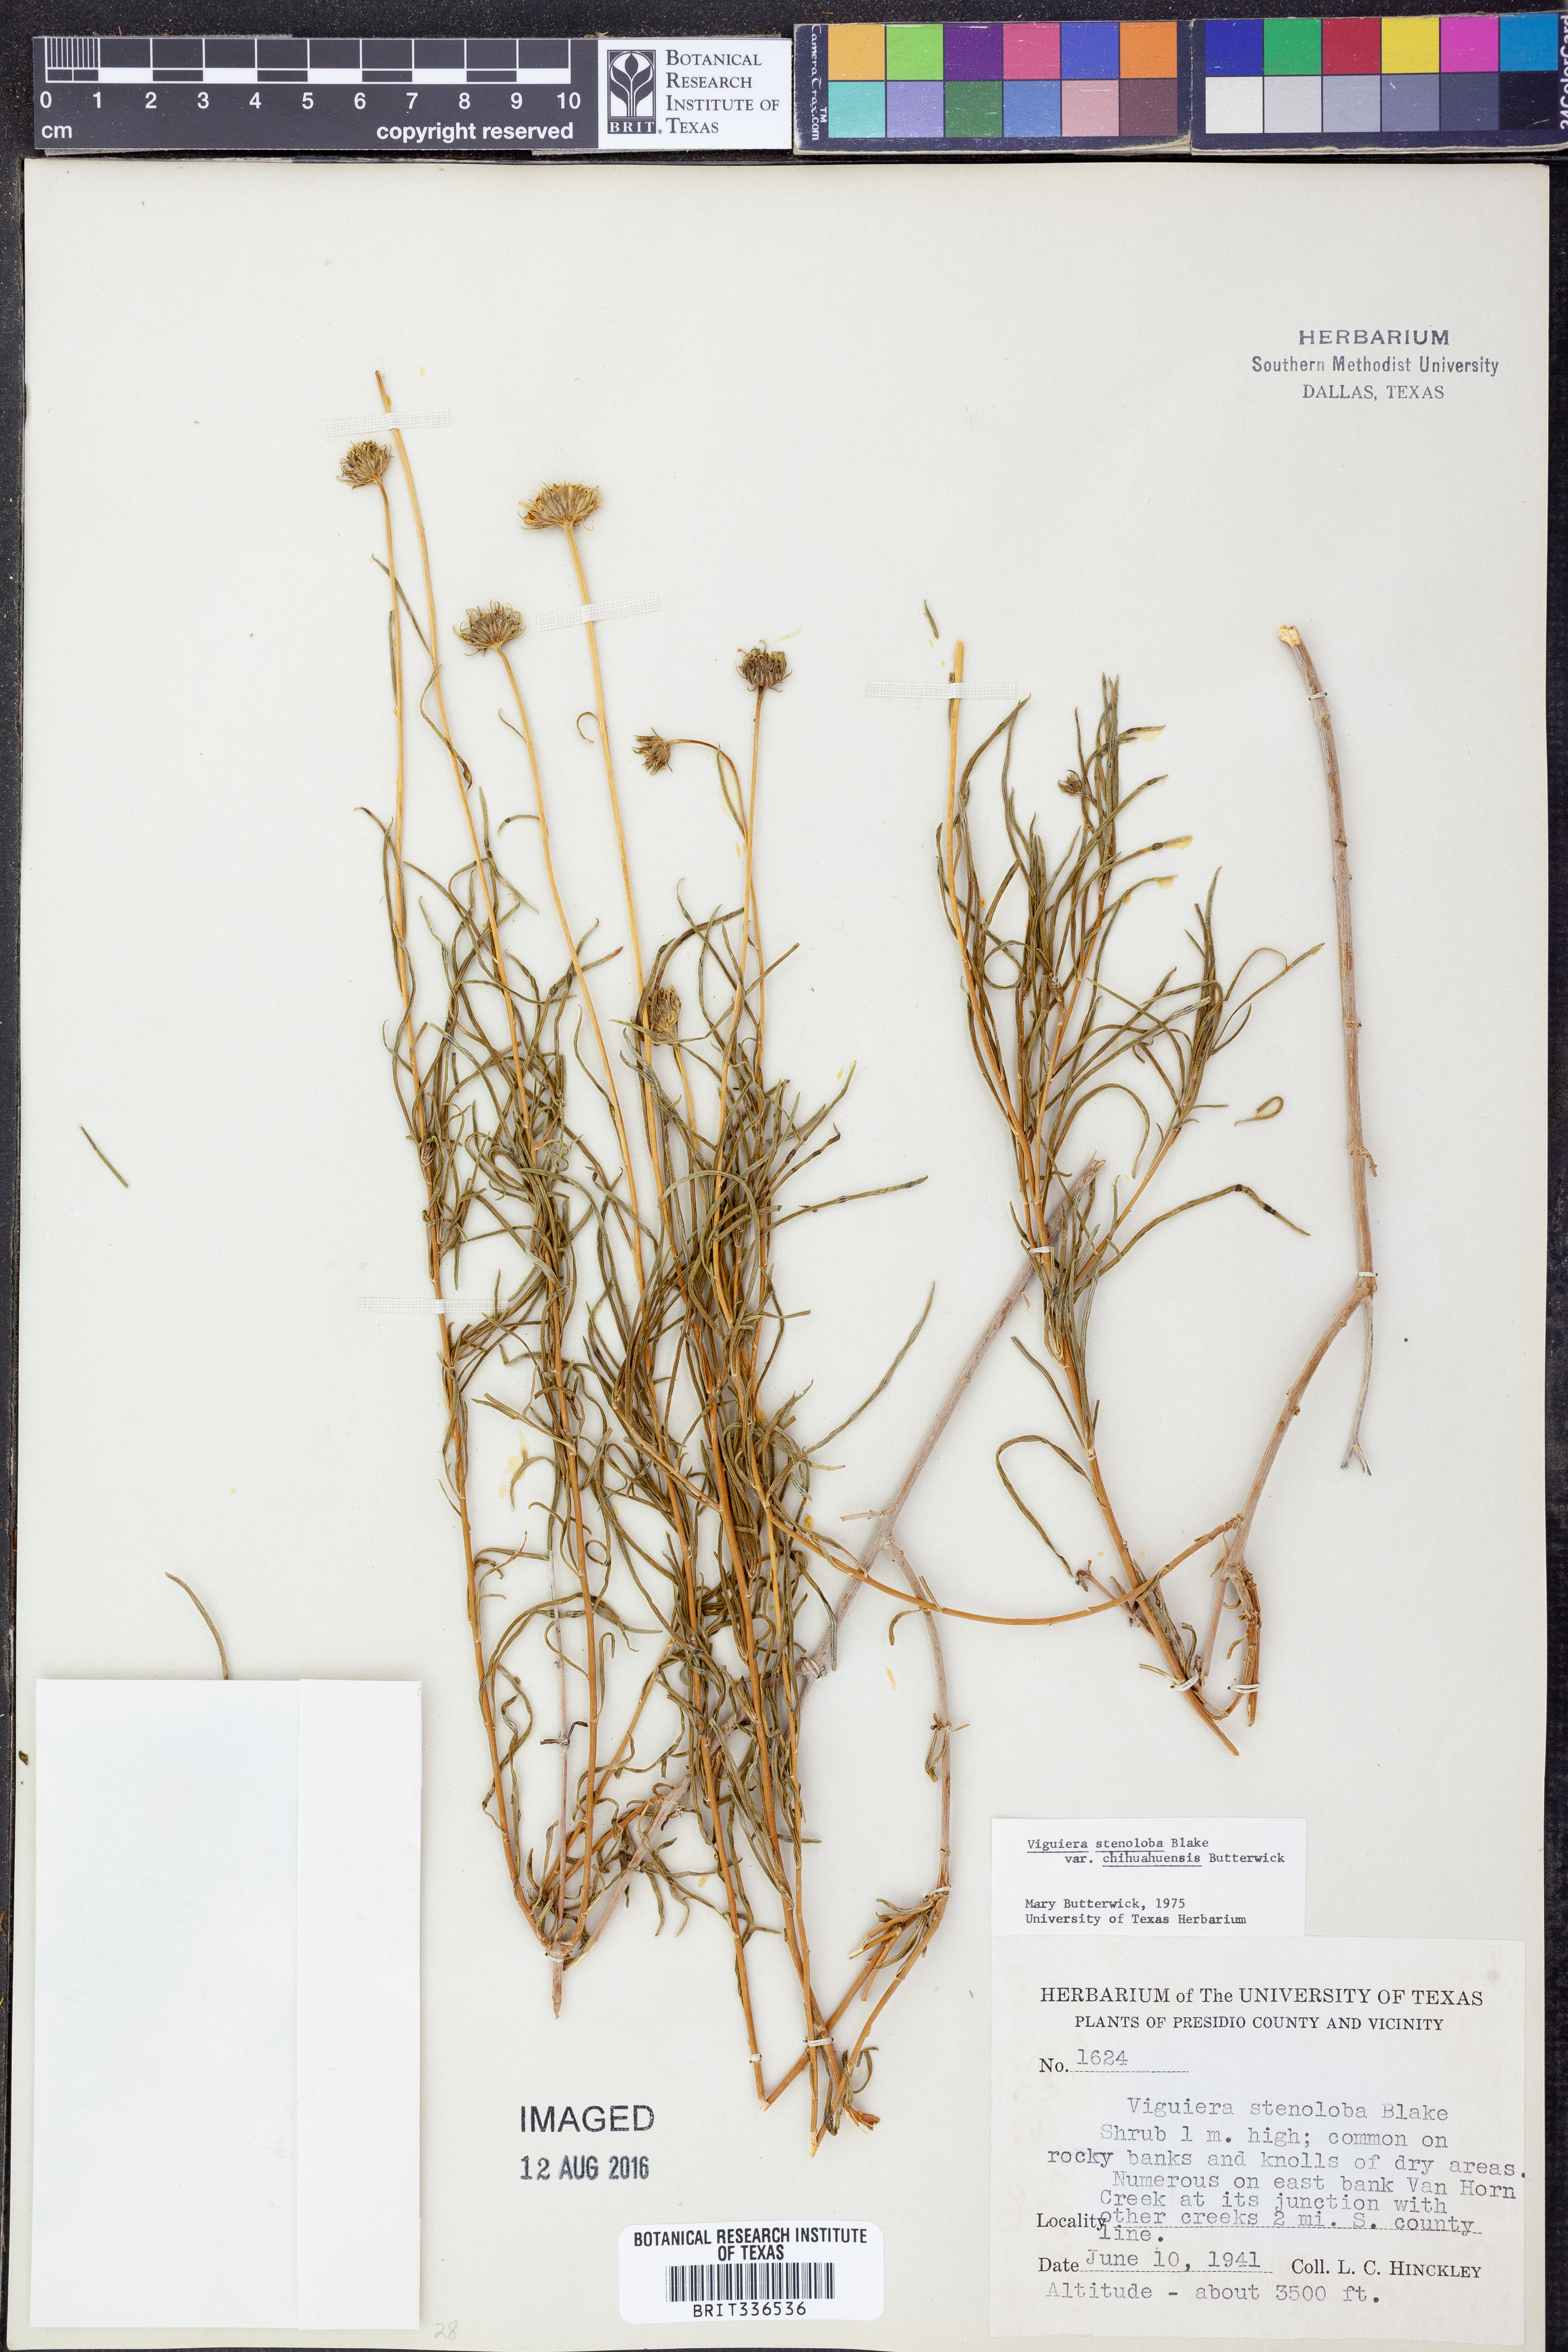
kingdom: Plantae
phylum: Tracheophyta
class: Magnoliopsida
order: Asterales
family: Asteraceae
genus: Sidneya
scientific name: Sidneya tenuifolia
